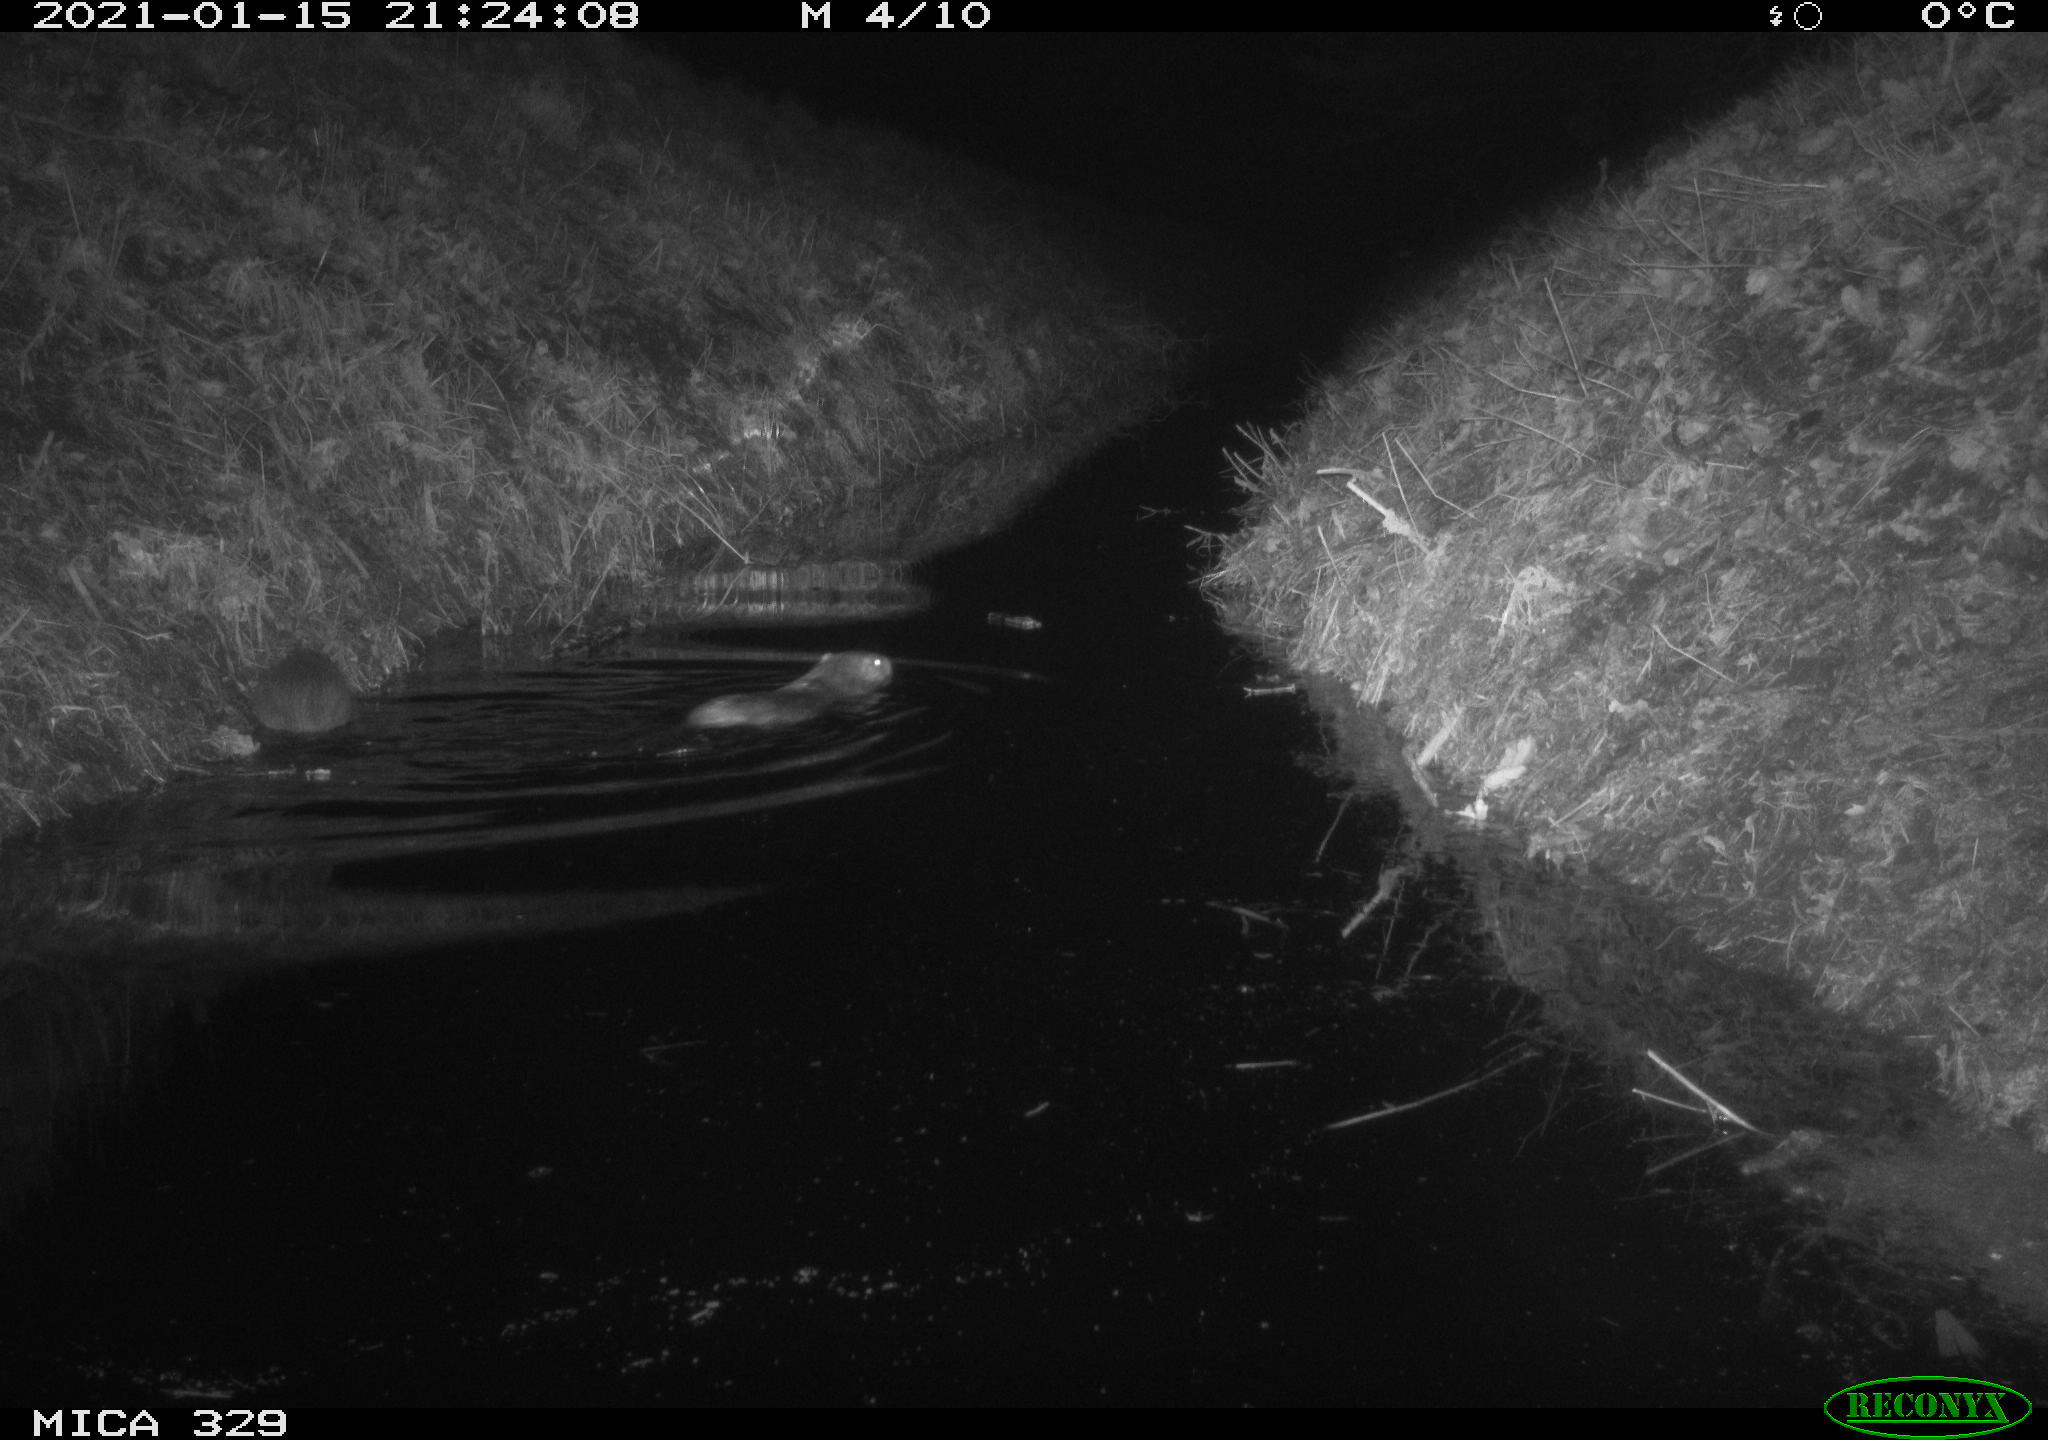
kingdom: Animalia
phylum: Chordata
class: Mammalia
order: Rodentia
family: Myocastoridae
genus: Myocastor
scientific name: Myocastor coypus
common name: Coypu
